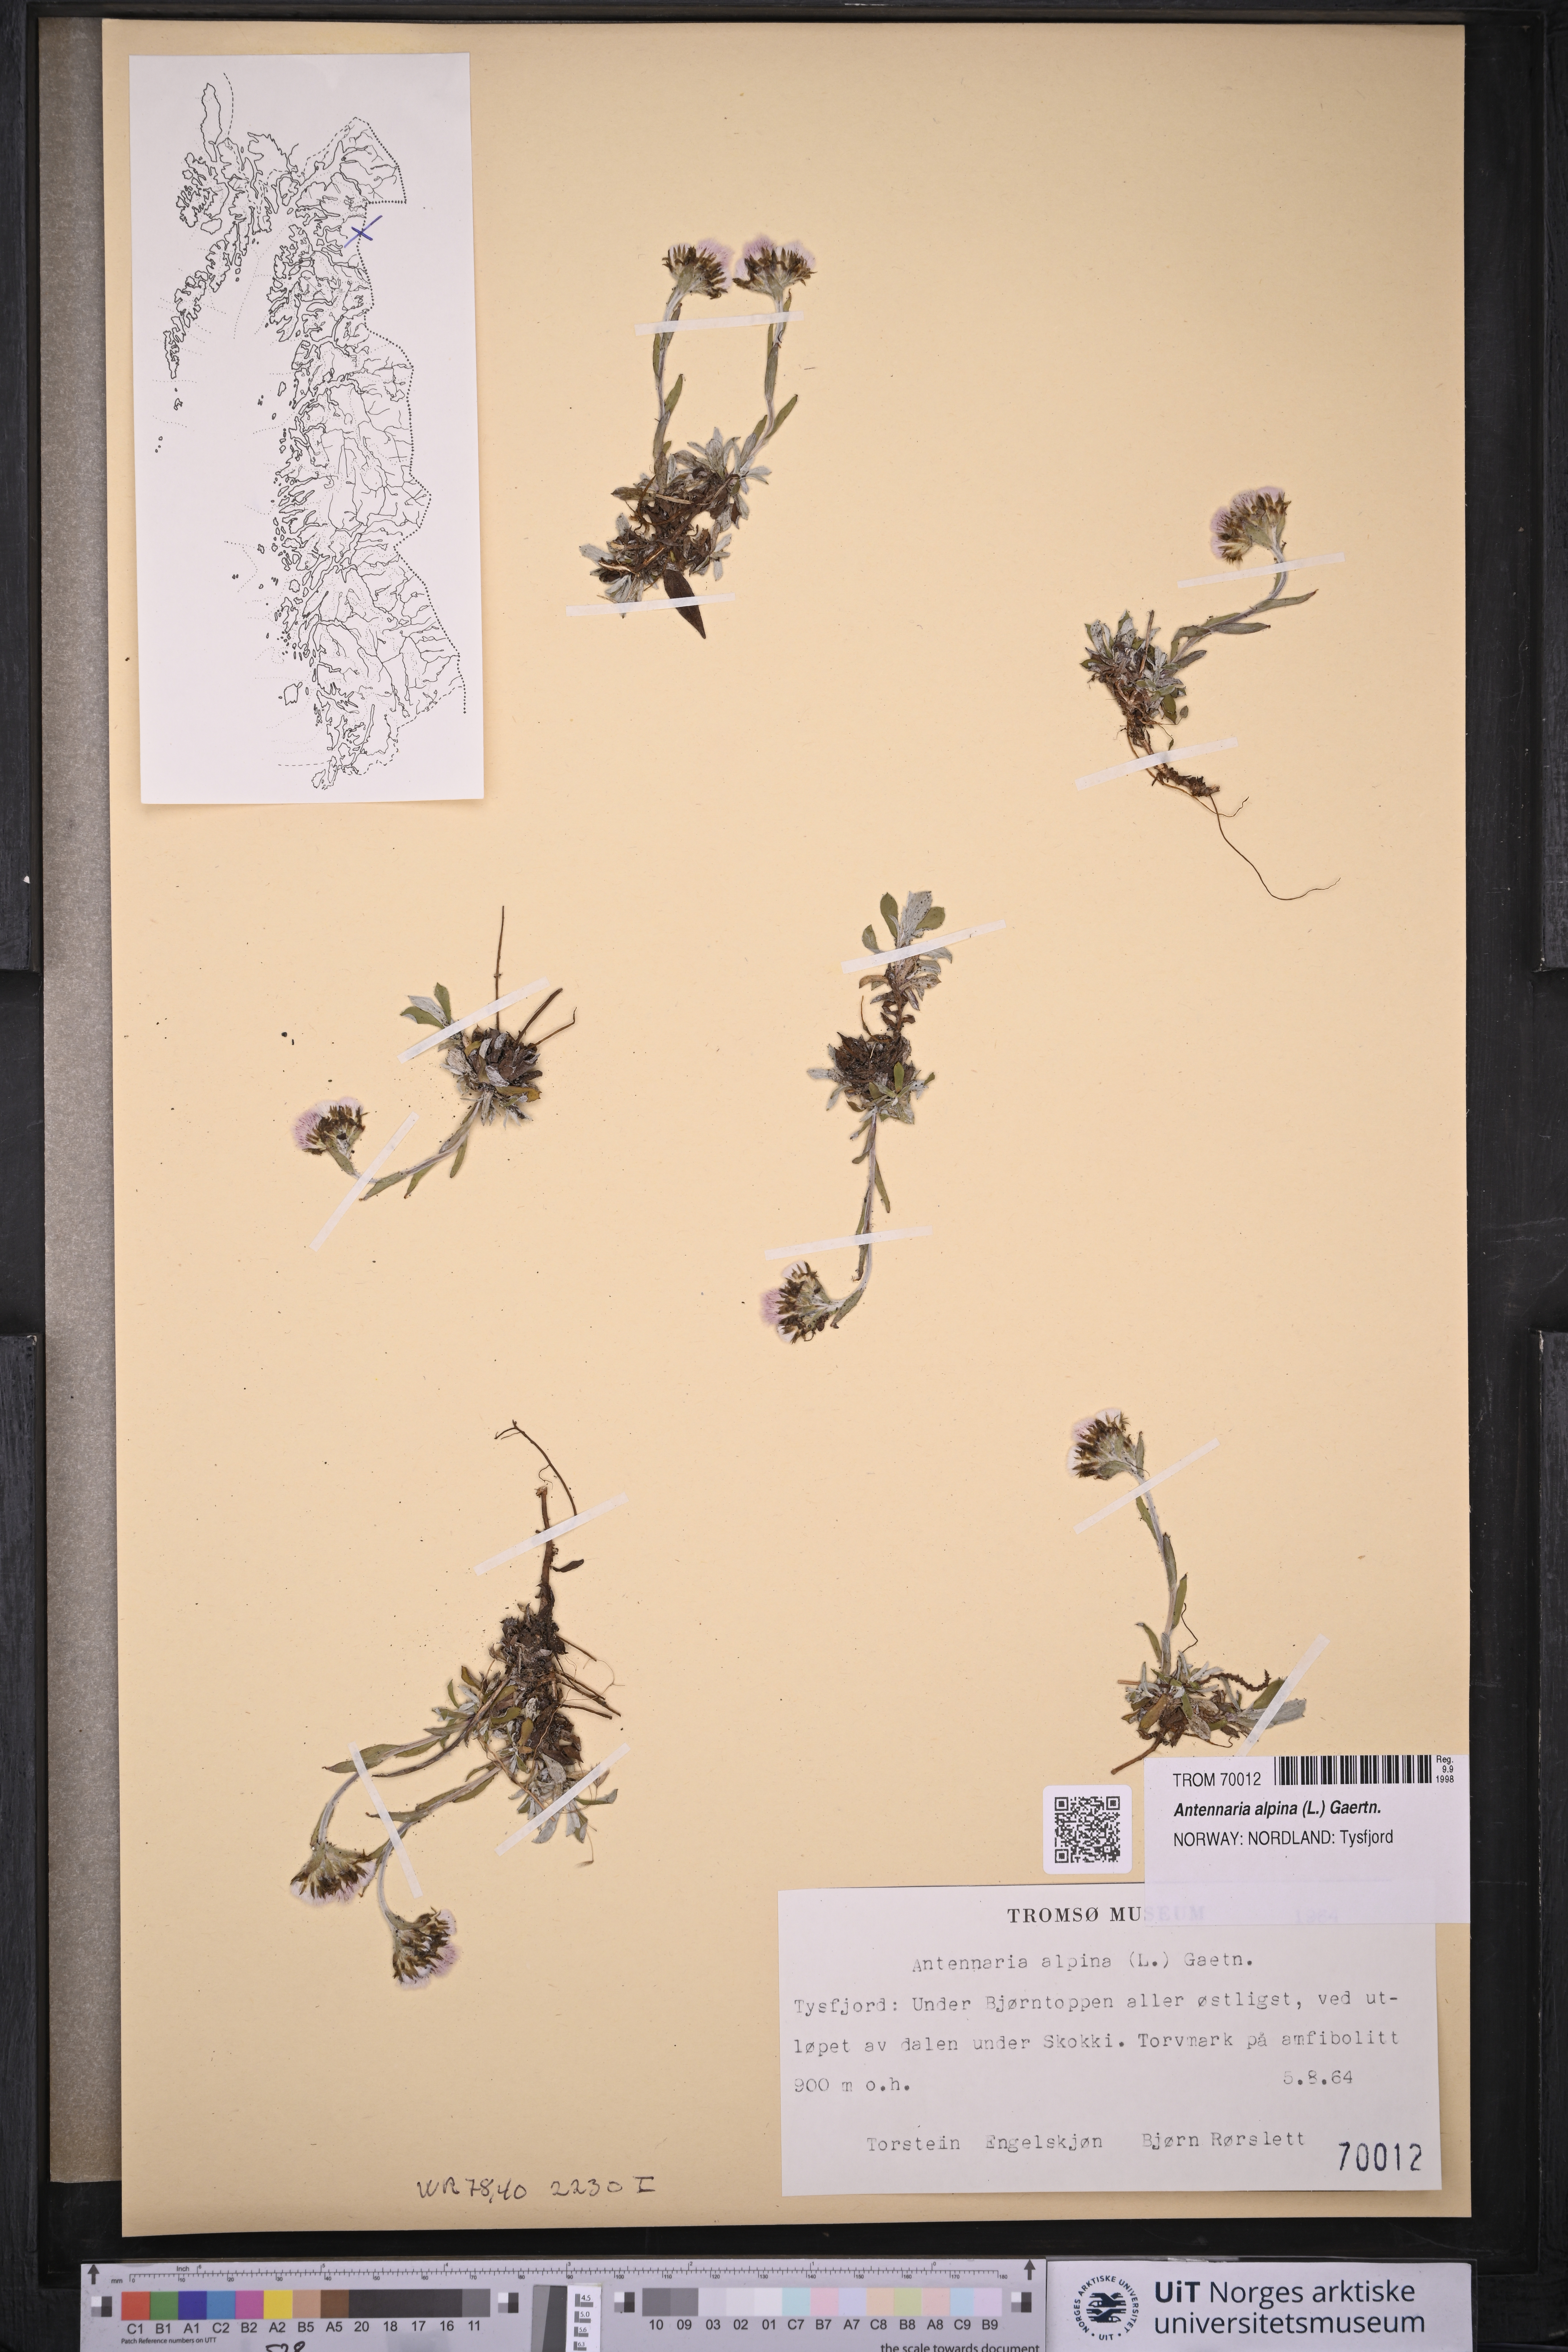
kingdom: Plantae
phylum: Tracheophyta
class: Magnoliopsida
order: Asterales
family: Asteraceae
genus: Antennaria
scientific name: Antennaria alpina
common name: Alpine pussytoes
